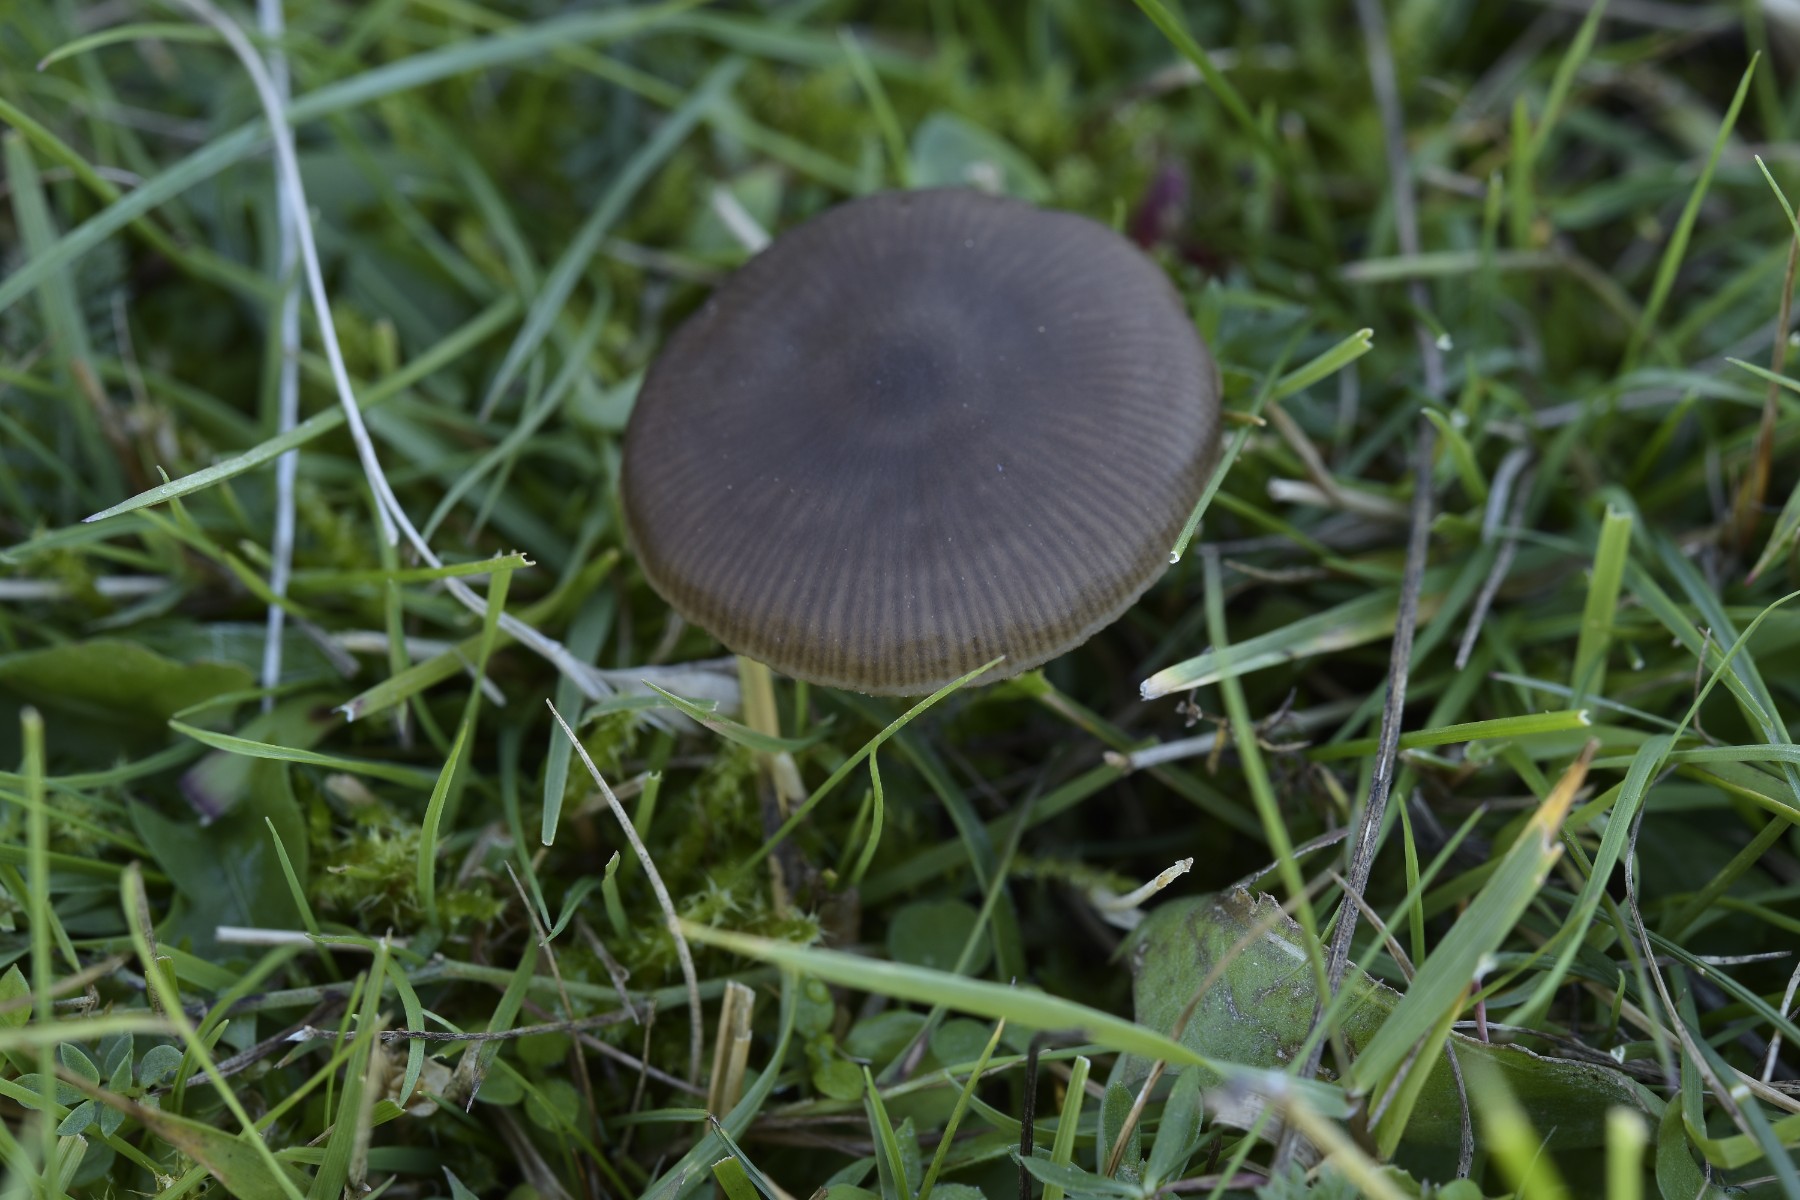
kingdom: Fungi
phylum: Basidiomycota
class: Agaricomycetes
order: Agaricales
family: Entolomataceae
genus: Entoloma
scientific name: Entoloma sericeum
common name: silkeglinsende rødblad
